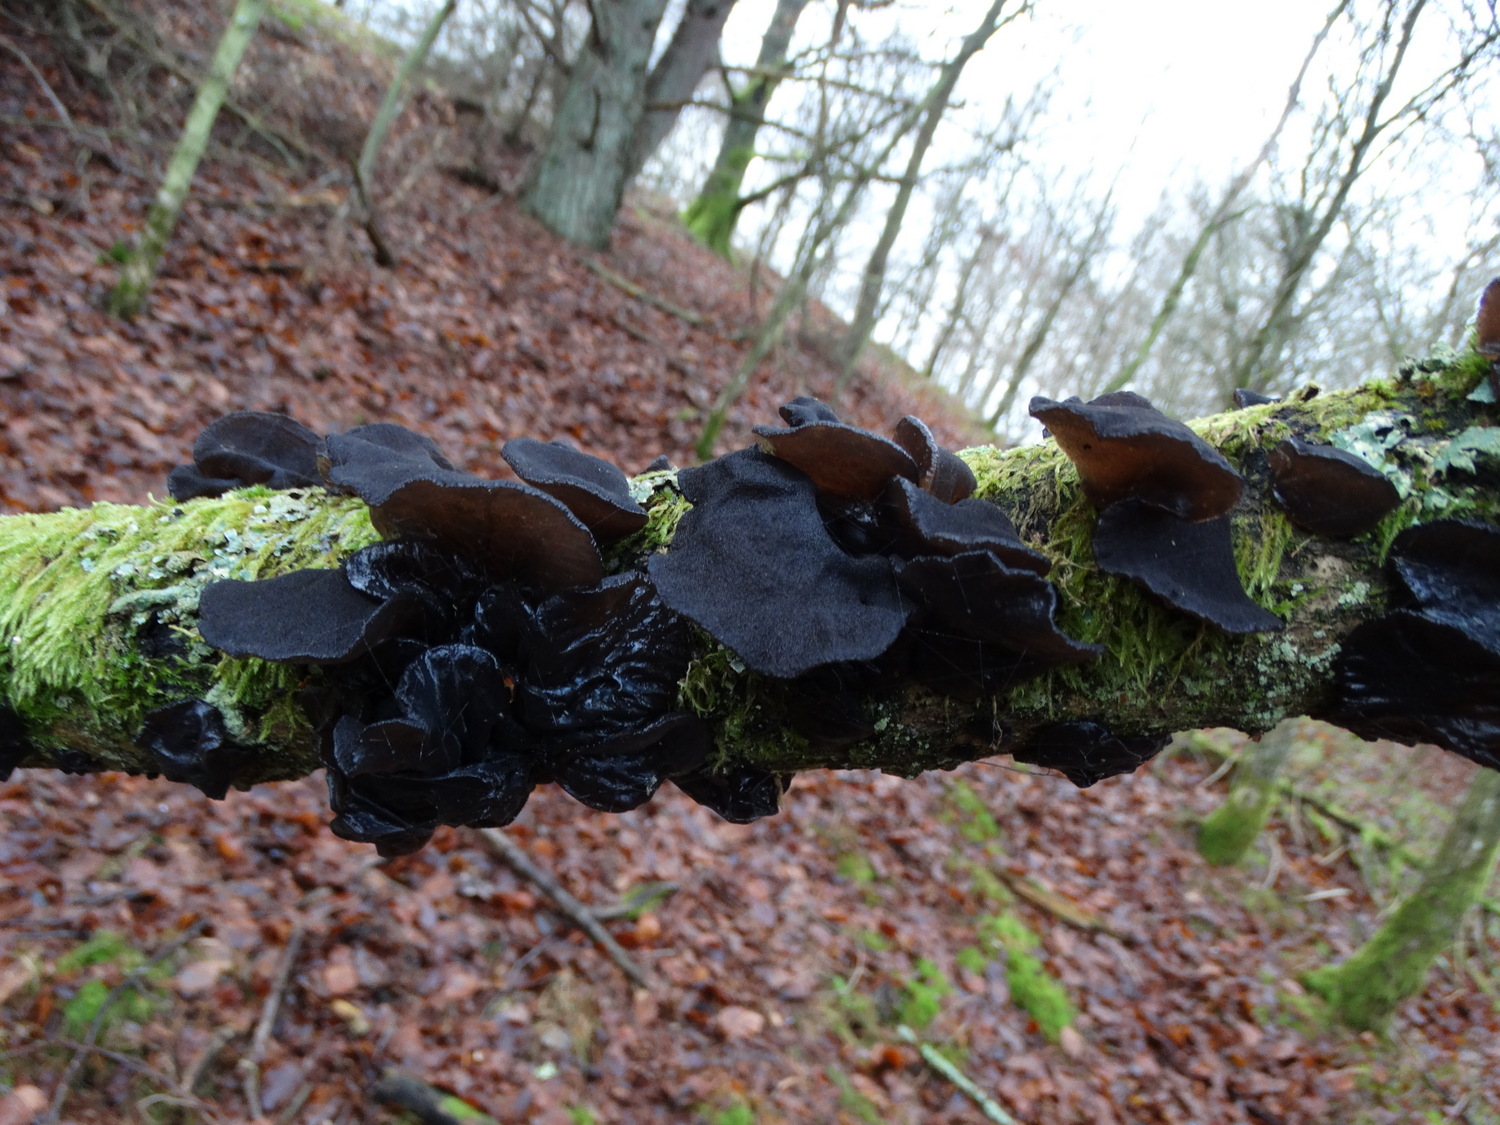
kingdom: Fungi
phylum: Basidiomycota
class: Agaricomycetes
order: Auriculariales
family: Auriculariaceae
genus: Exidia
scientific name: Exidia glandulosa
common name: ege-bævretop
